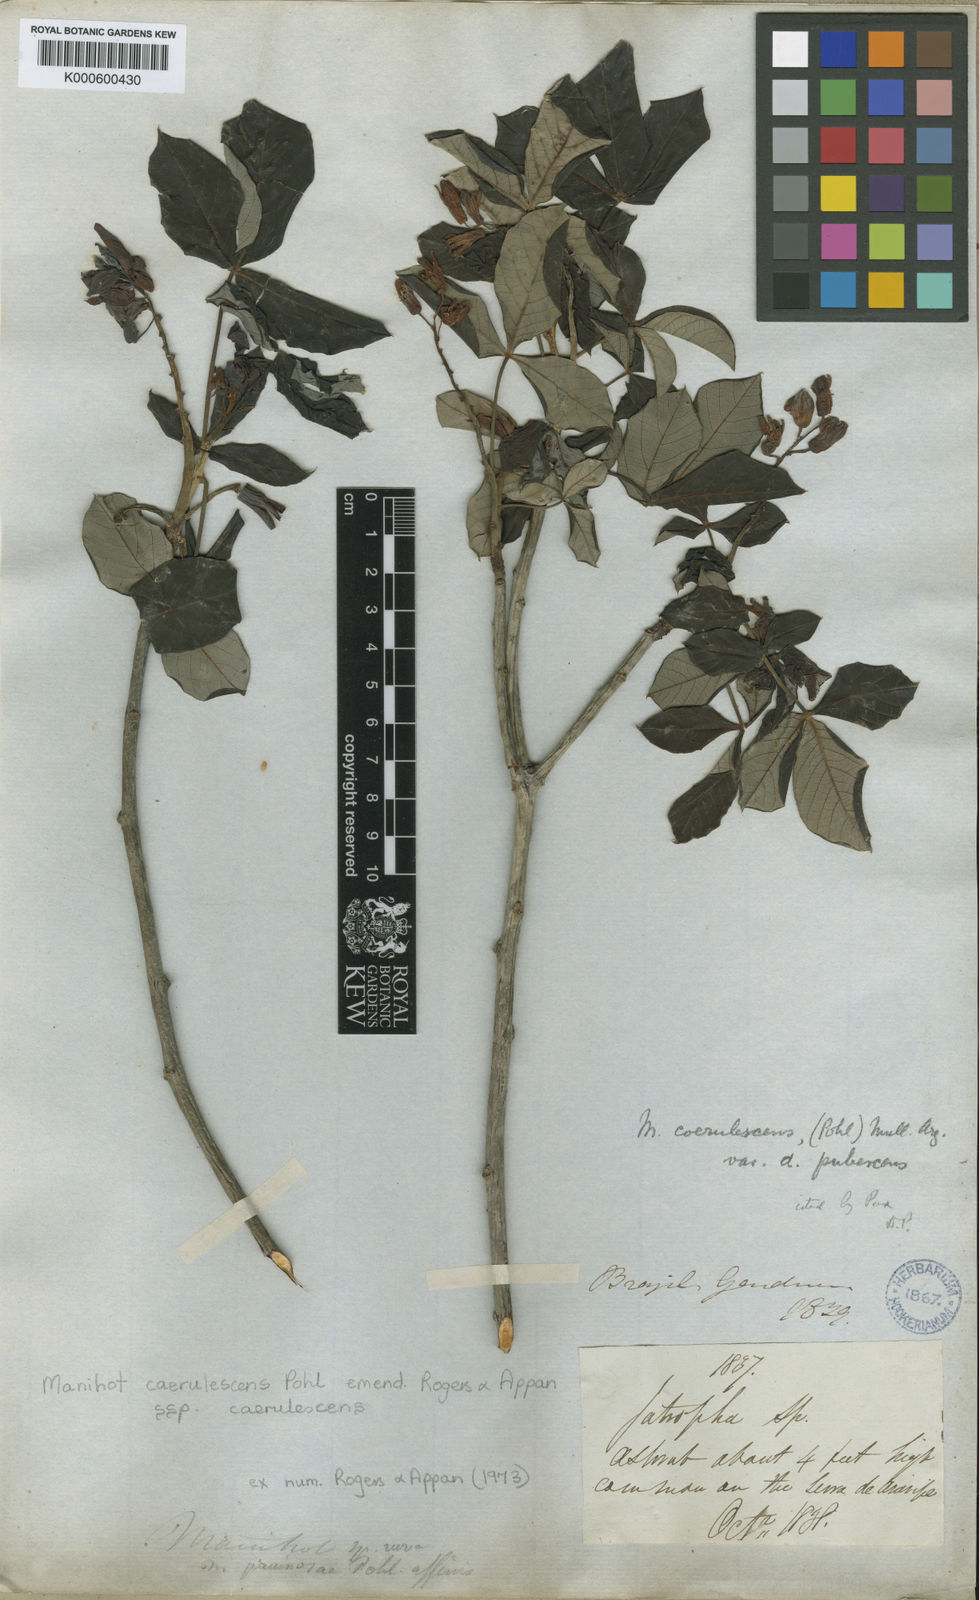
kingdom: Plantae
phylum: Tracheophyta
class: Magnoliopsida
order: Malpighiales
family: Euphorbiaceae
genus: Manihot
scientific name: Manihot caerulescens
